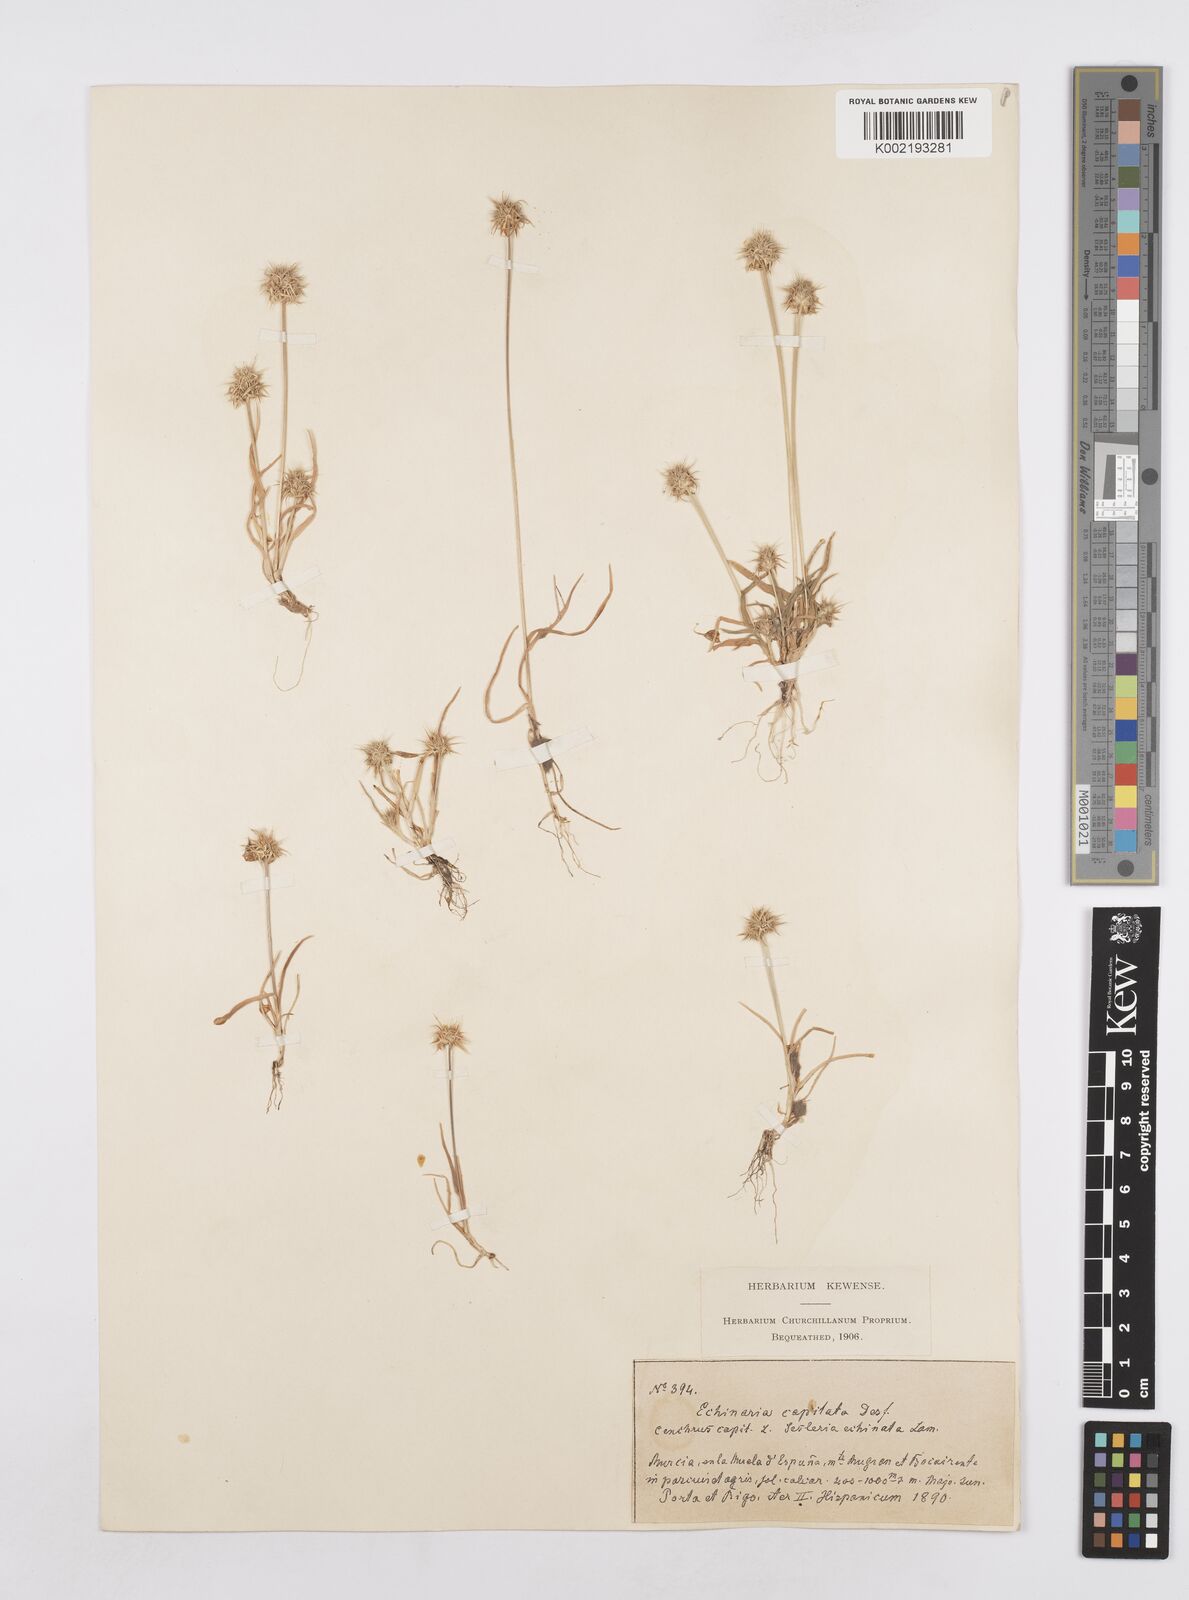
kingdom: Plantae
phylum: Tracheophyta
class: Liliopsida
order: Poales
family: Poaceae
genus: Echinaria
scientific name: Echinaria capitata
